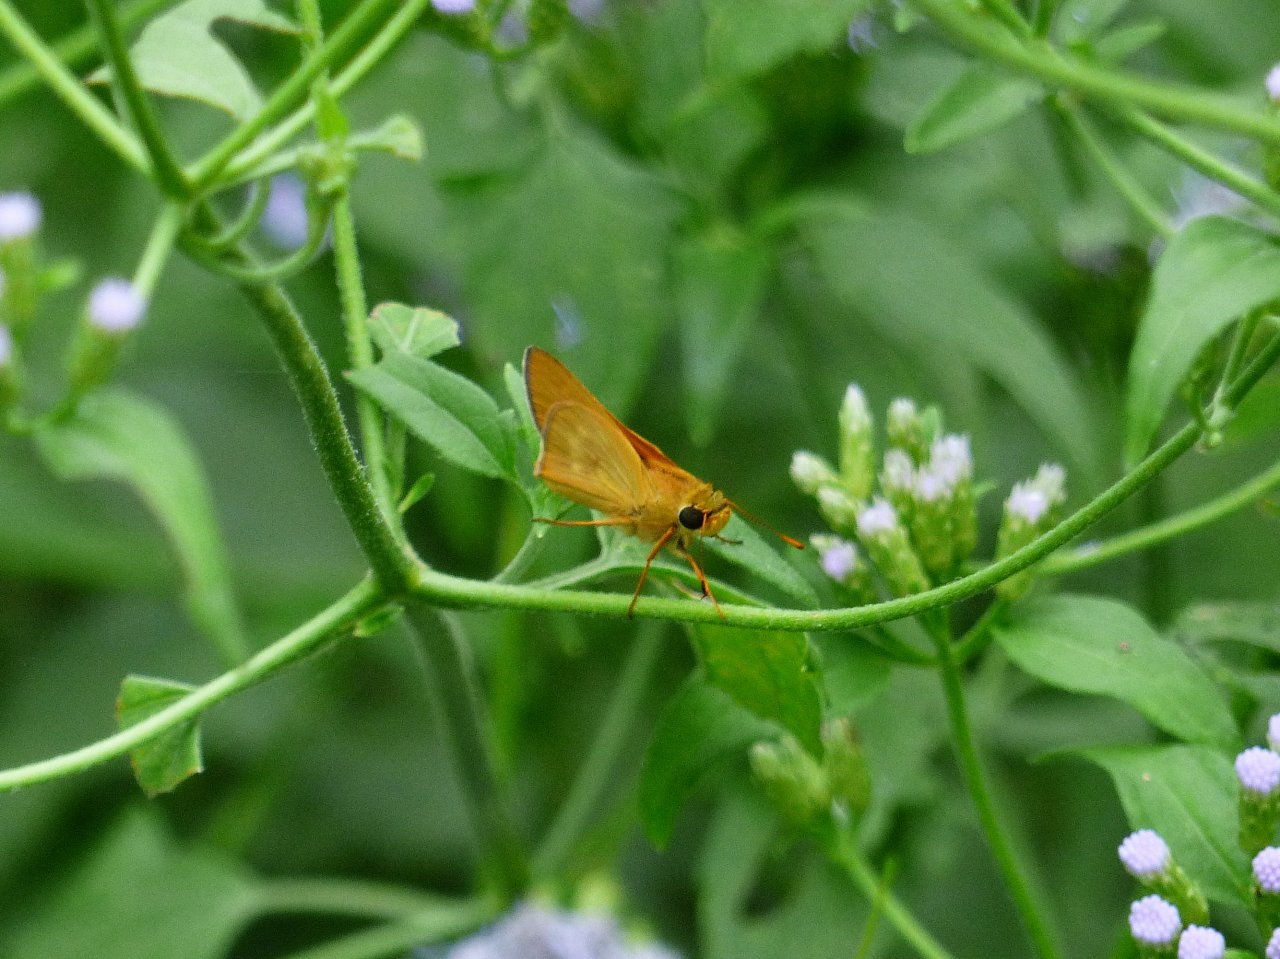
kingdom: Animalia
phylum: Arthropoda
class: Insecta
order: Lepidoptera
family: Hesperiidae
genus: Mellana
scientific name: Mellana eulogius
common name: Common Mellana
